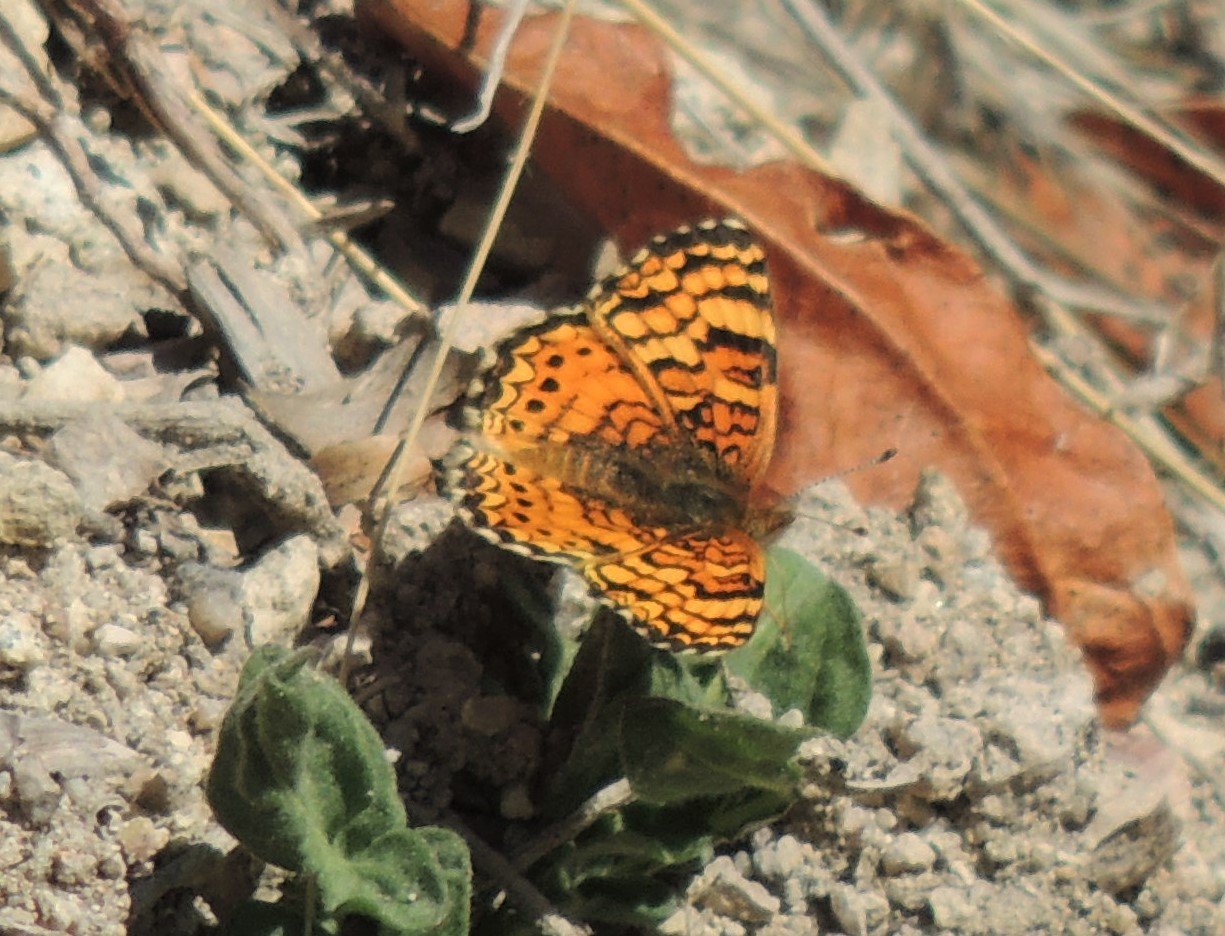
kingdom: Animalia
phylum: Arthropoda
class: Insecta
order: Lepidoptera
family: Nymphalidae
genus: Eresia
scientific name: Eresia aveyrona
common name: Mylitta Crescent
